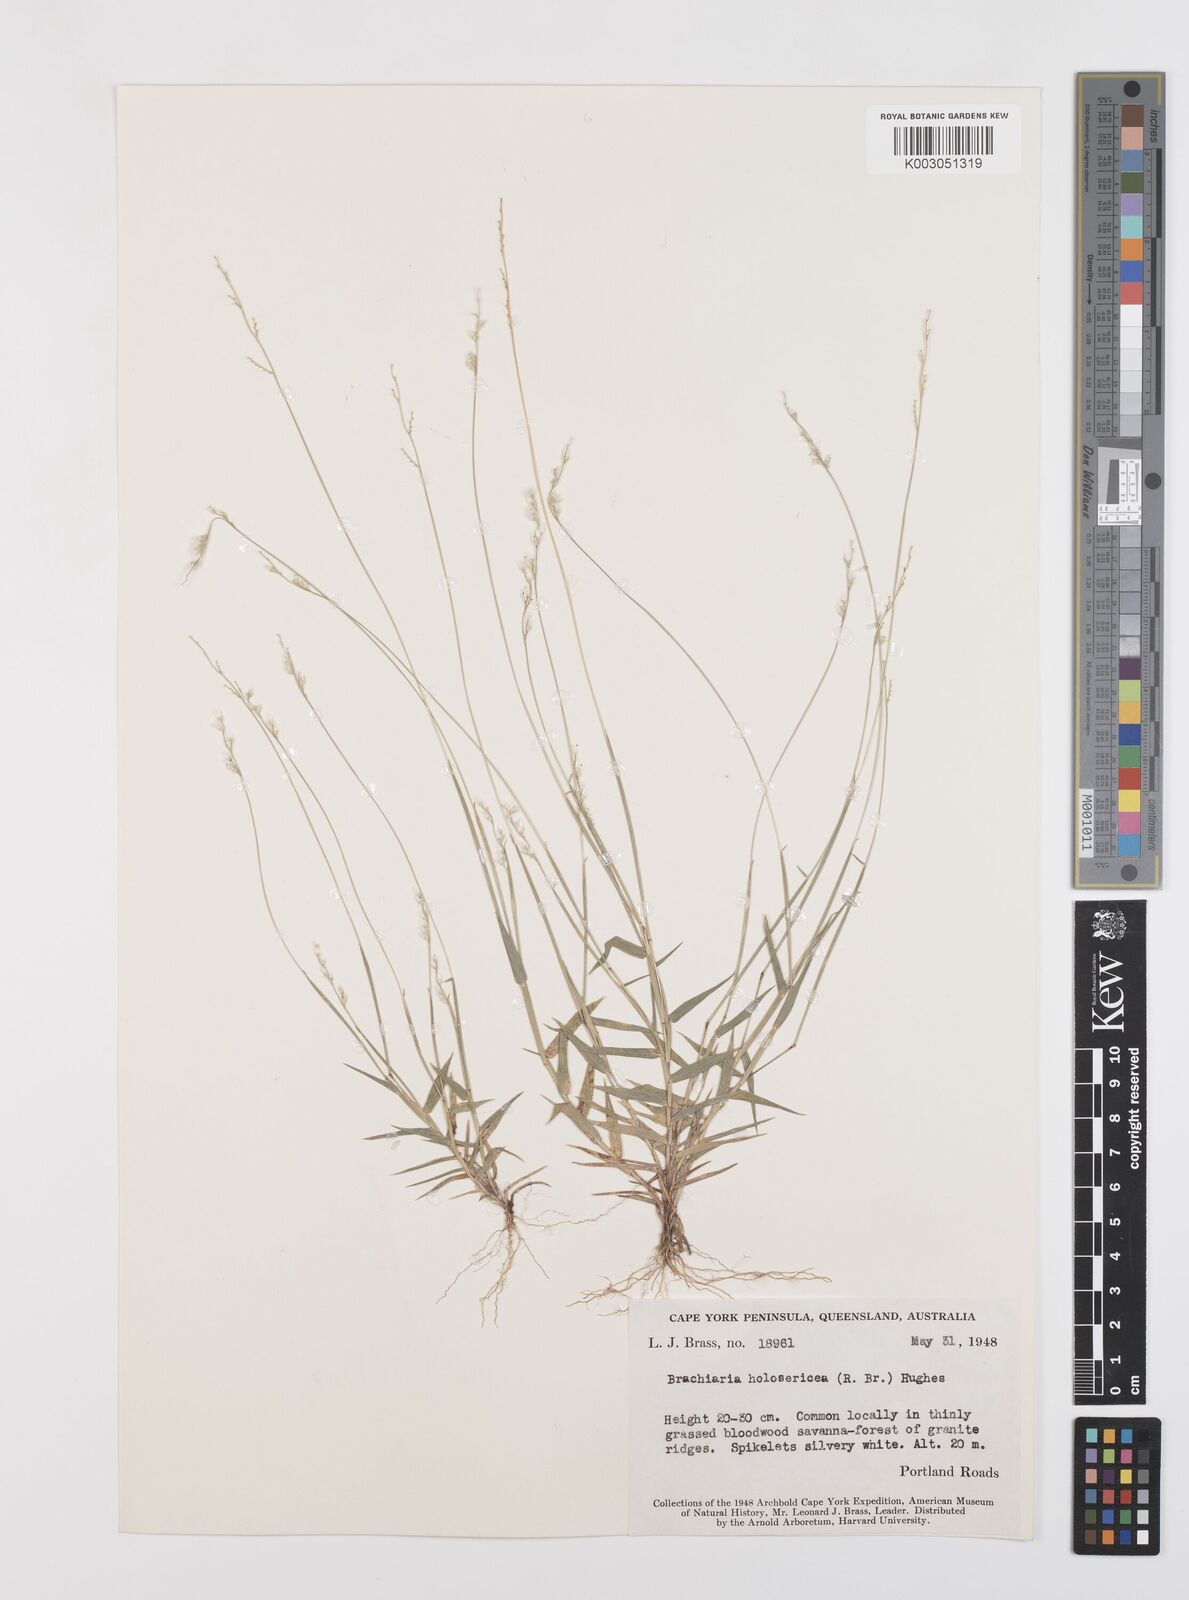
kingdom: Plantae
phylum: Tracheophyta
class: Liliopsida
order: Poales
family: Poaceae
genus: Urochloa
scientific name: Urochloa holosericea
